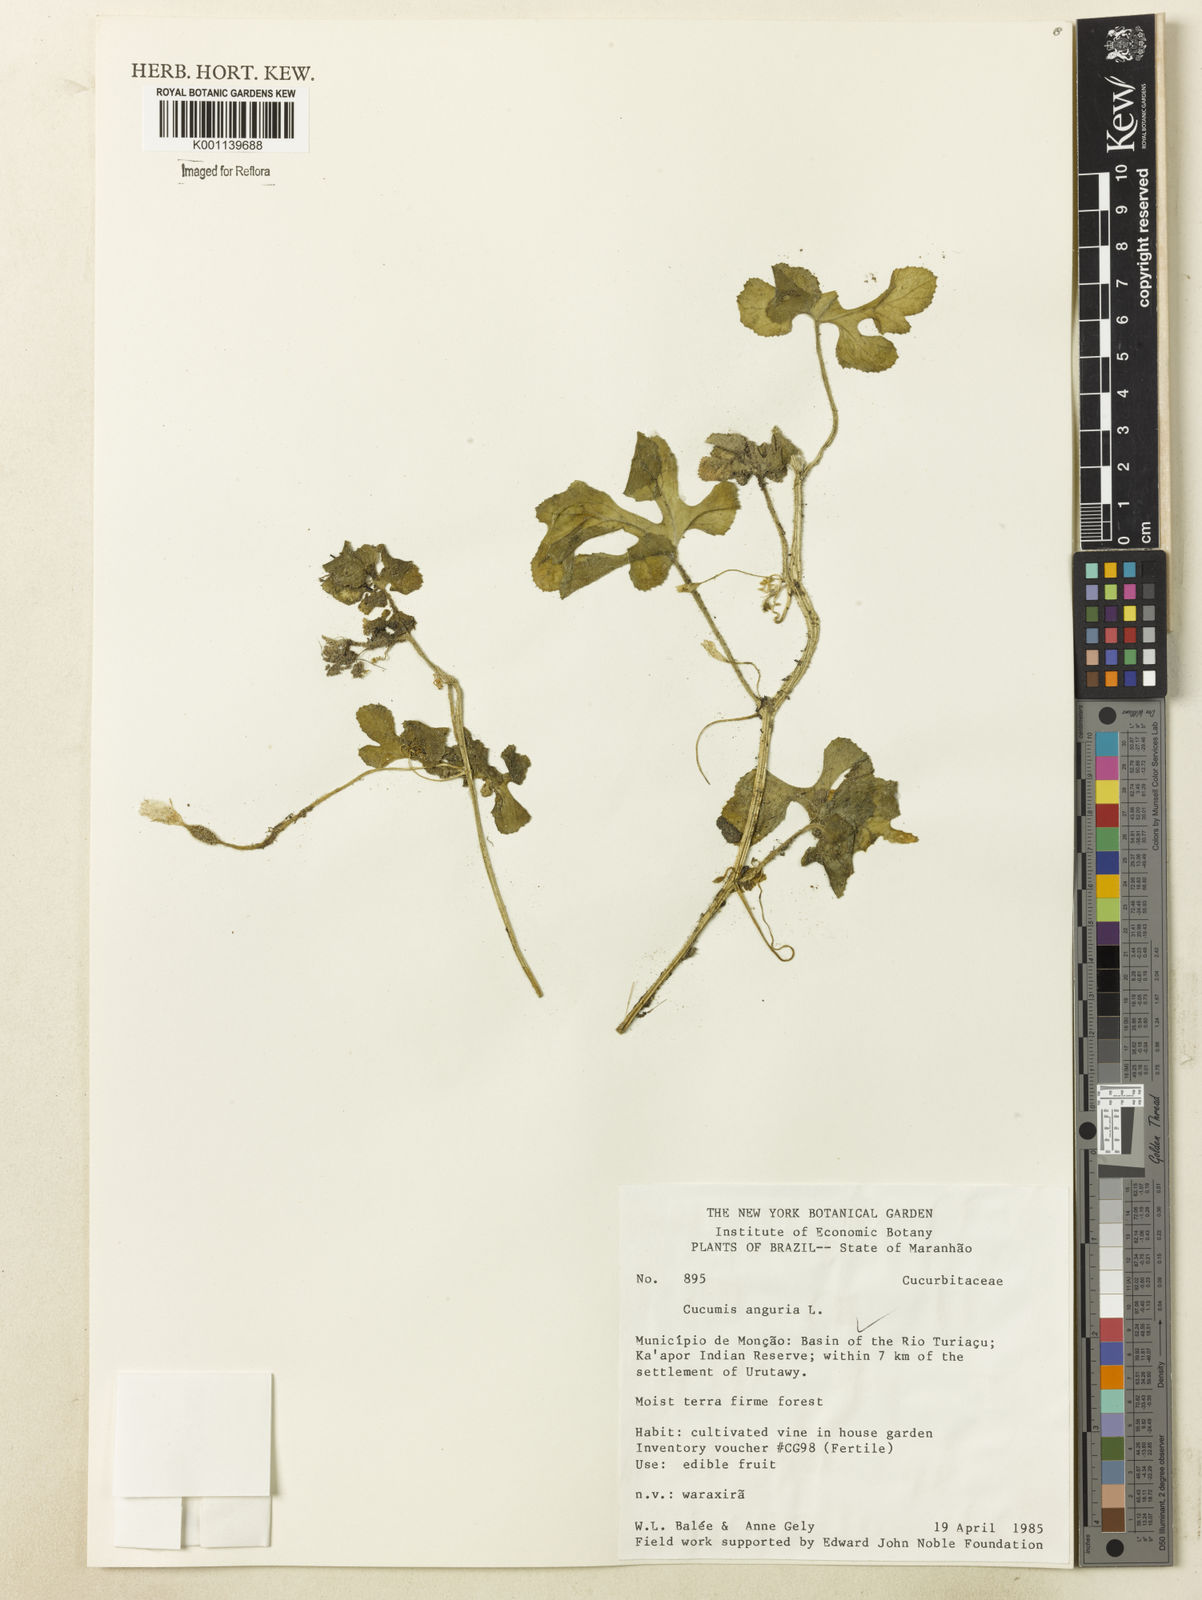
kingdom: Plantae
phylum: Tracheophyta
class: Magnoliopsida
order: Cucurbitales
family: Cucurbitaceae
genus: Cucumis
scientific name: Cucumis anguria
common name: West indian gherkin
